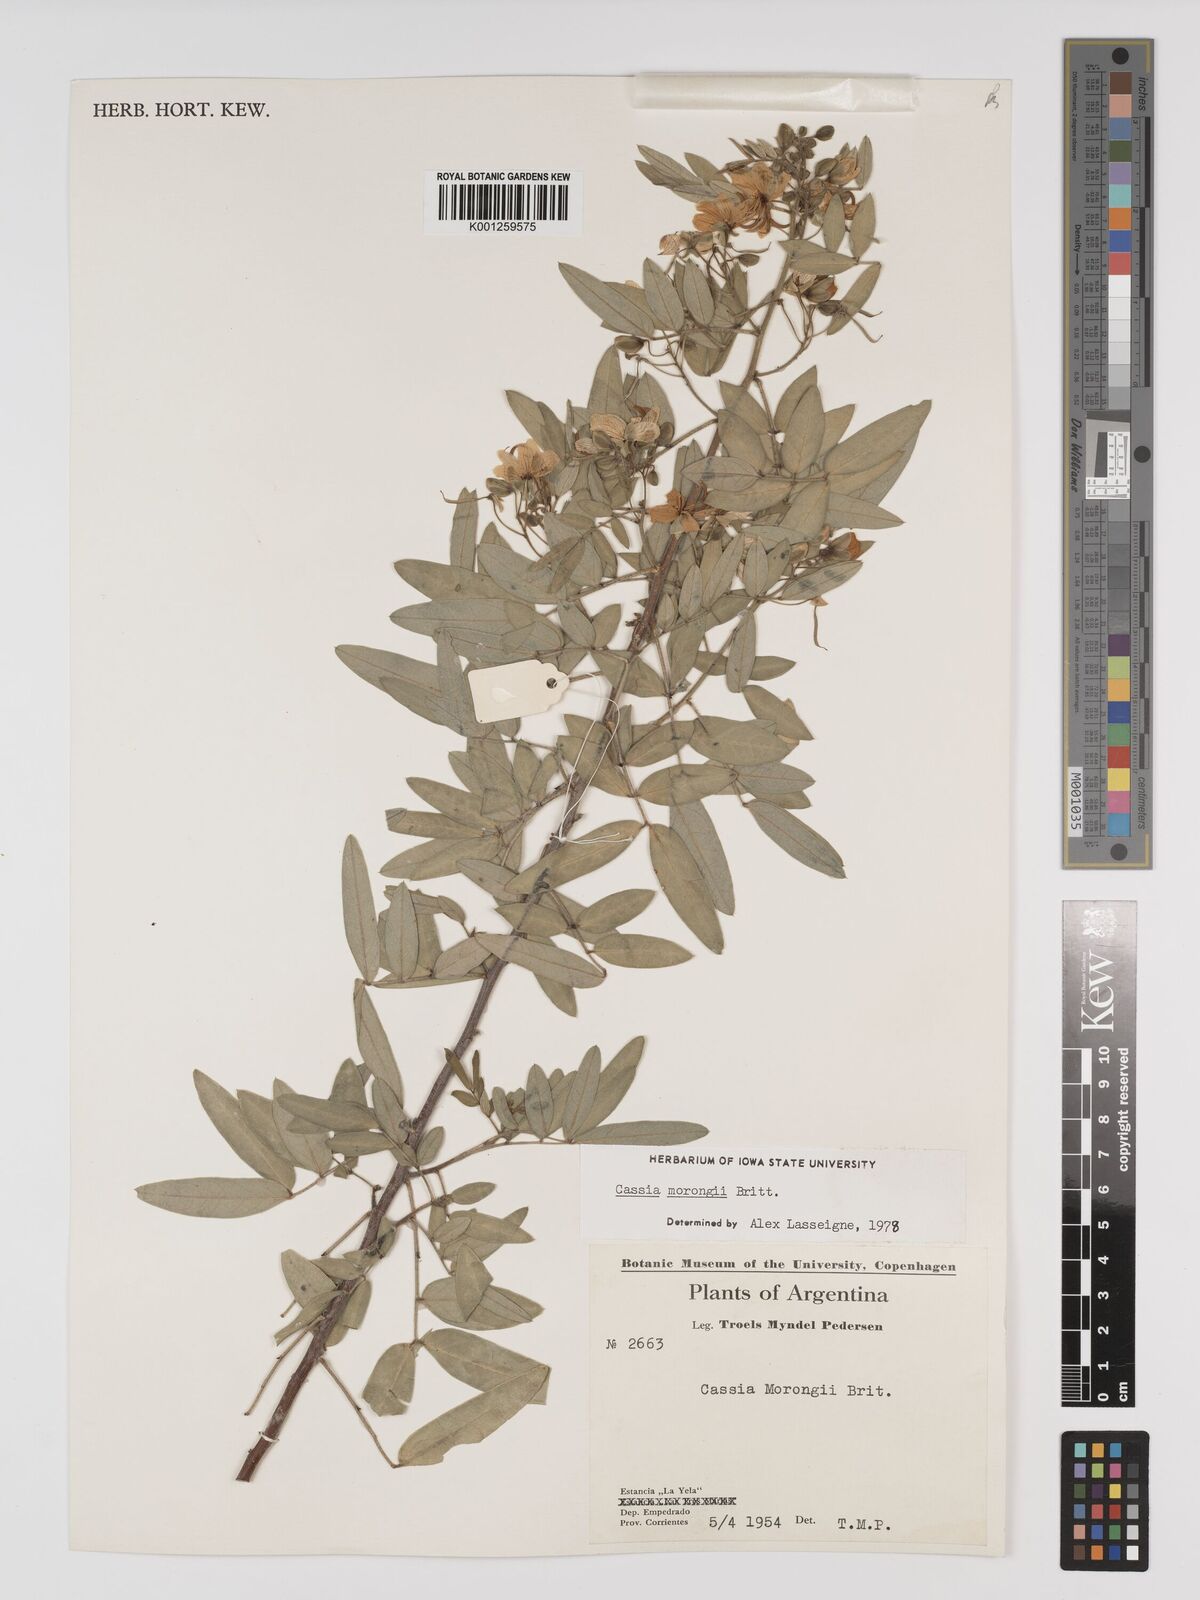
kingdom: Plantae
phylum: Tracheophyta
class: Magnoliopsida
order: Fabales
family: Fabaceae
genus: Senna
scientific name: Senna morongii
